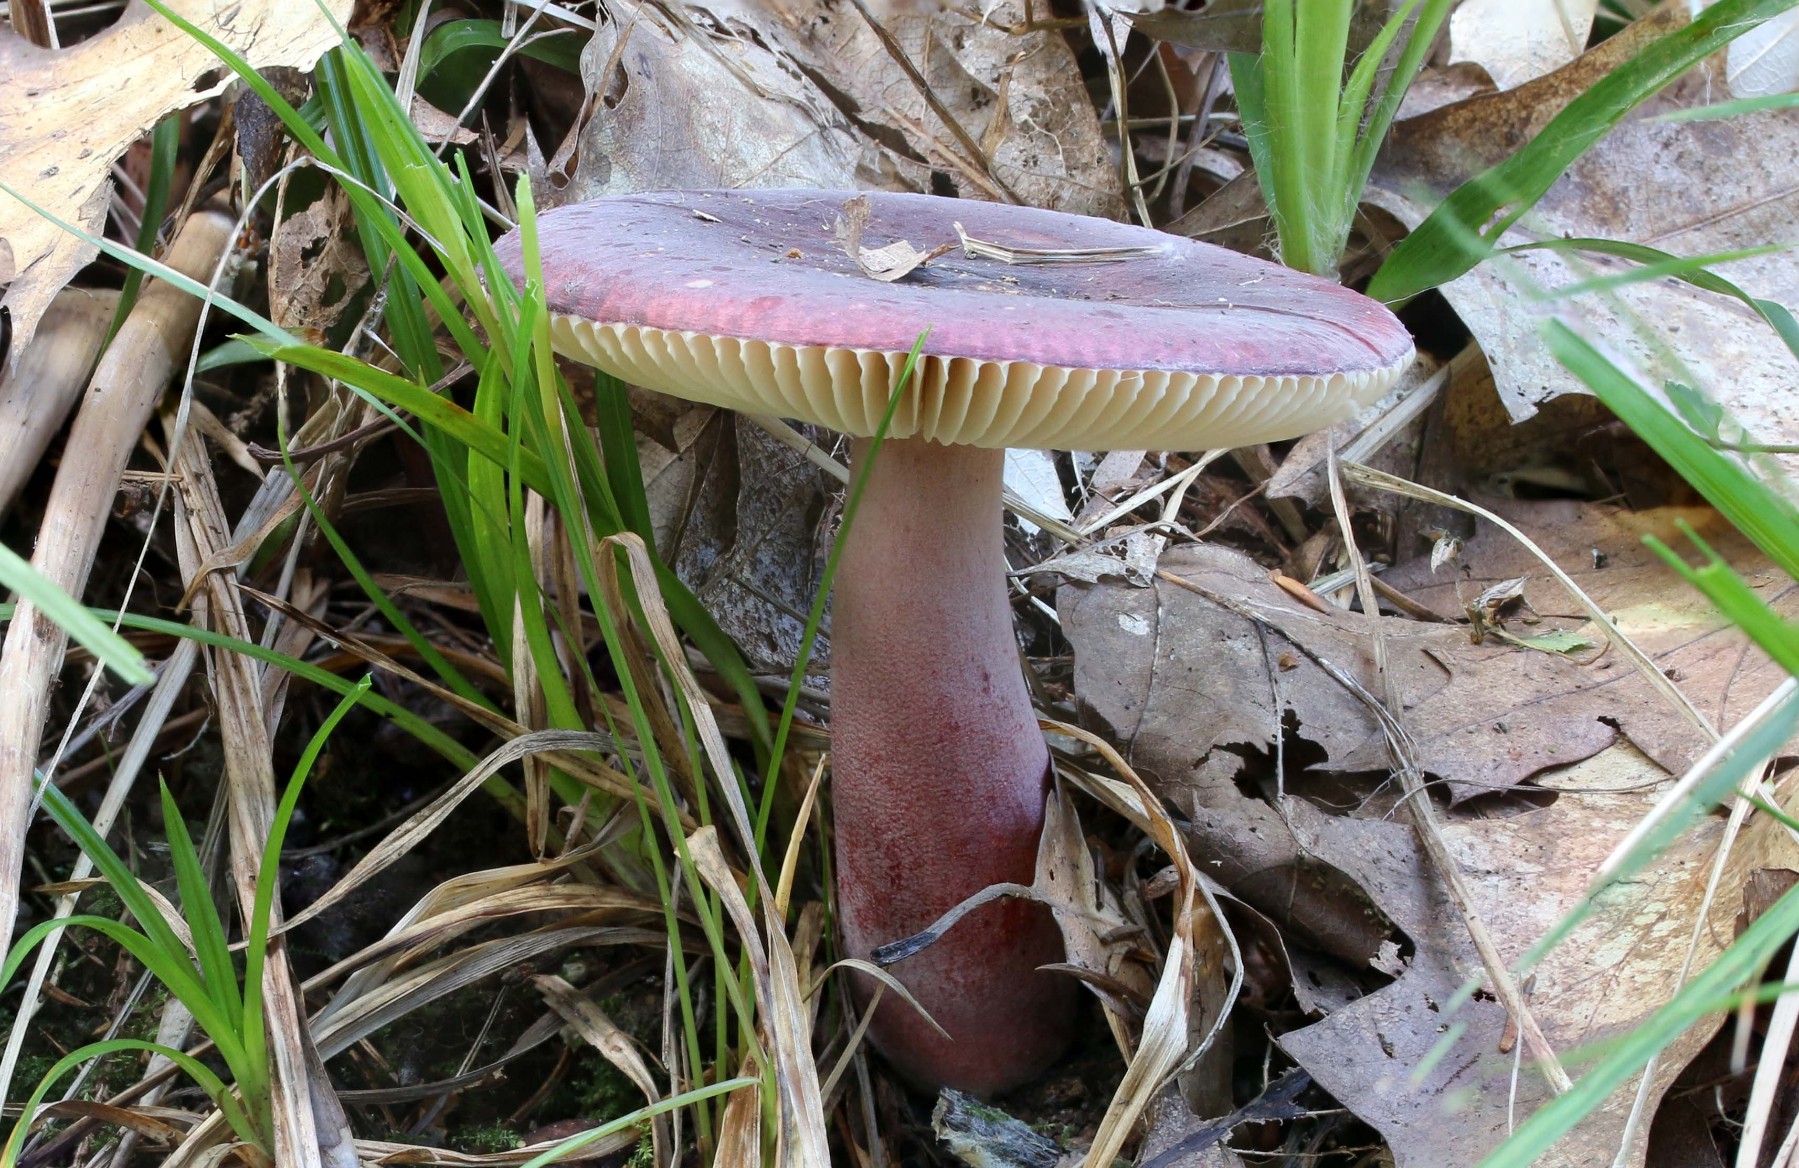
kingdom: Fungi
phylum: Basidiomycota
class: Agaricomycetes
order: Russulales
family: Russulaceae
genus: Russula
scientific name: Russula queletii
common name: Quélets skørhat
